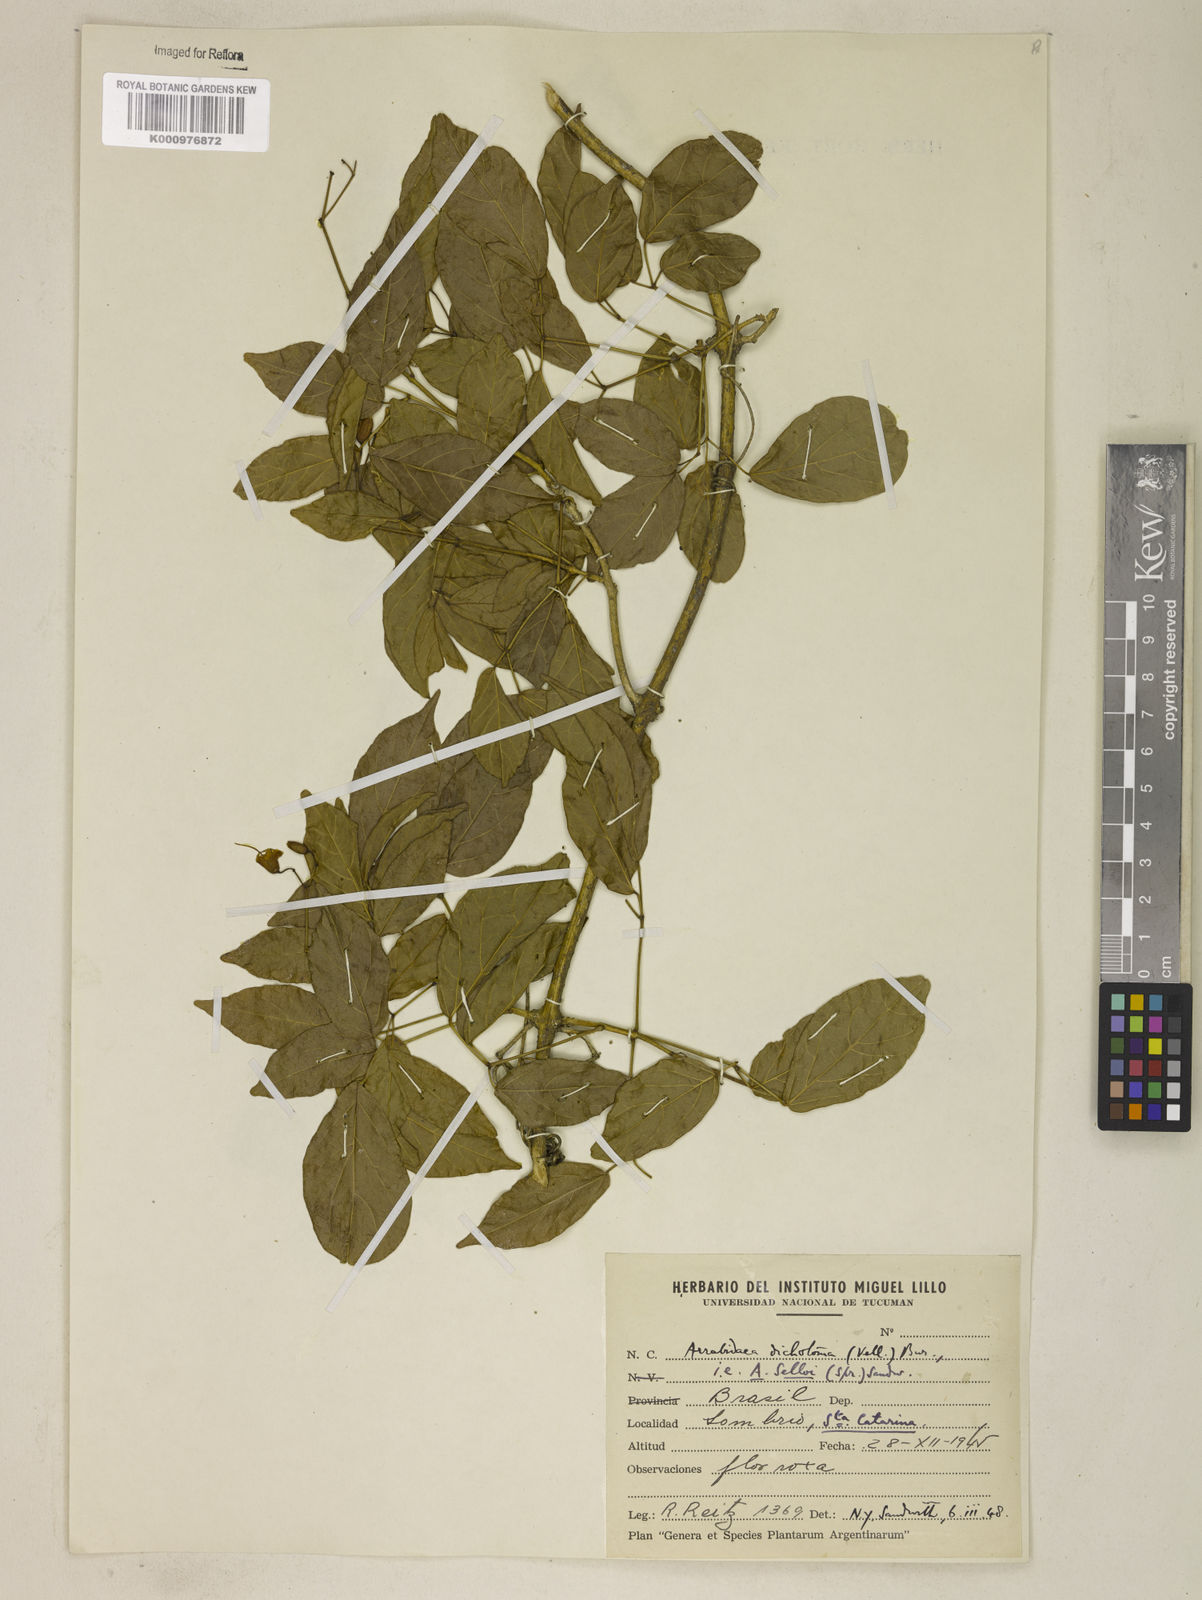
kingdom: Plantae
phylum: Tracheophyta
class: Magnoliopsida
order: Lamiales
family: Bignoniaceae
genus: Tanaecium
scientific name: Tanaecium selloi
